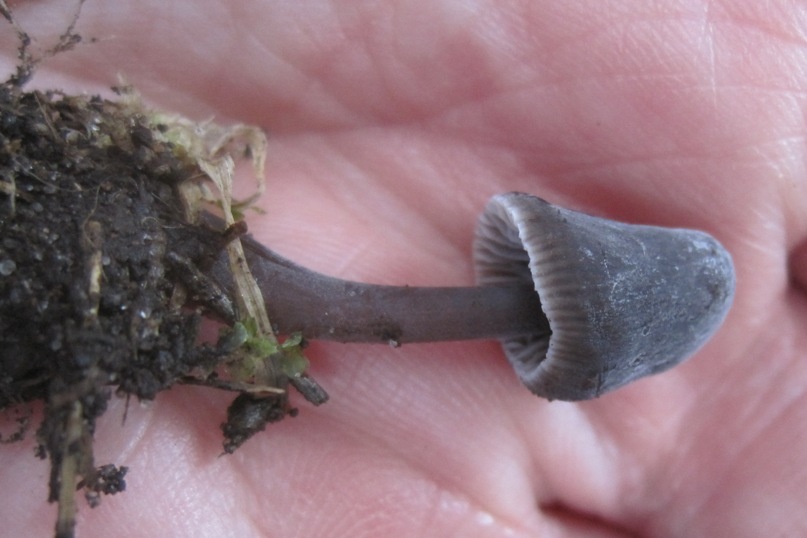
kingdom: Fungi
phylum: Basidiomycota
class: Agaricomycetes
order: Agaricales
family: Mycenaceae
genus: Mycena
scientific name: Mycena aetites
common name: plæne-huesvamp
